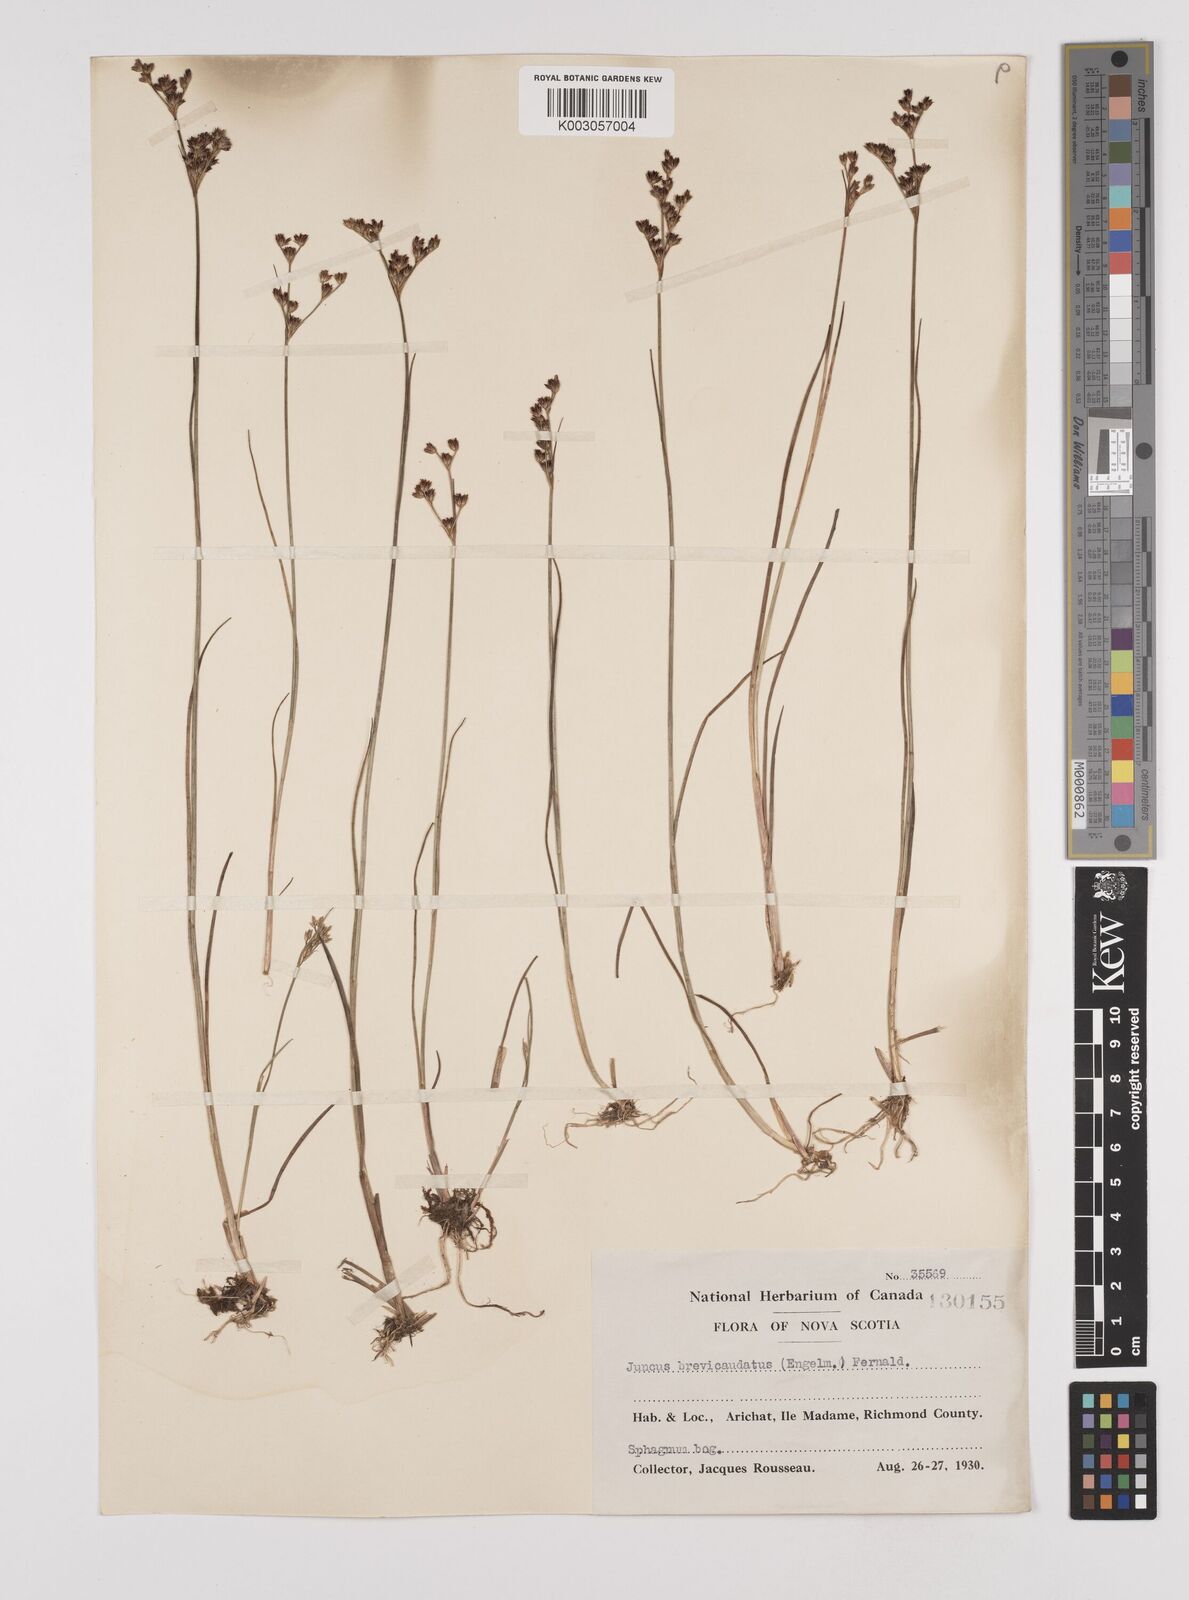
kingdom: Plantae
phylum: Tracheophyta
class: Liliopsida
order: Poales
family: Juncaceae
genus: Juncus
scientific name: Juncus brevicaudatus
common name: Narrow-panicle rush
